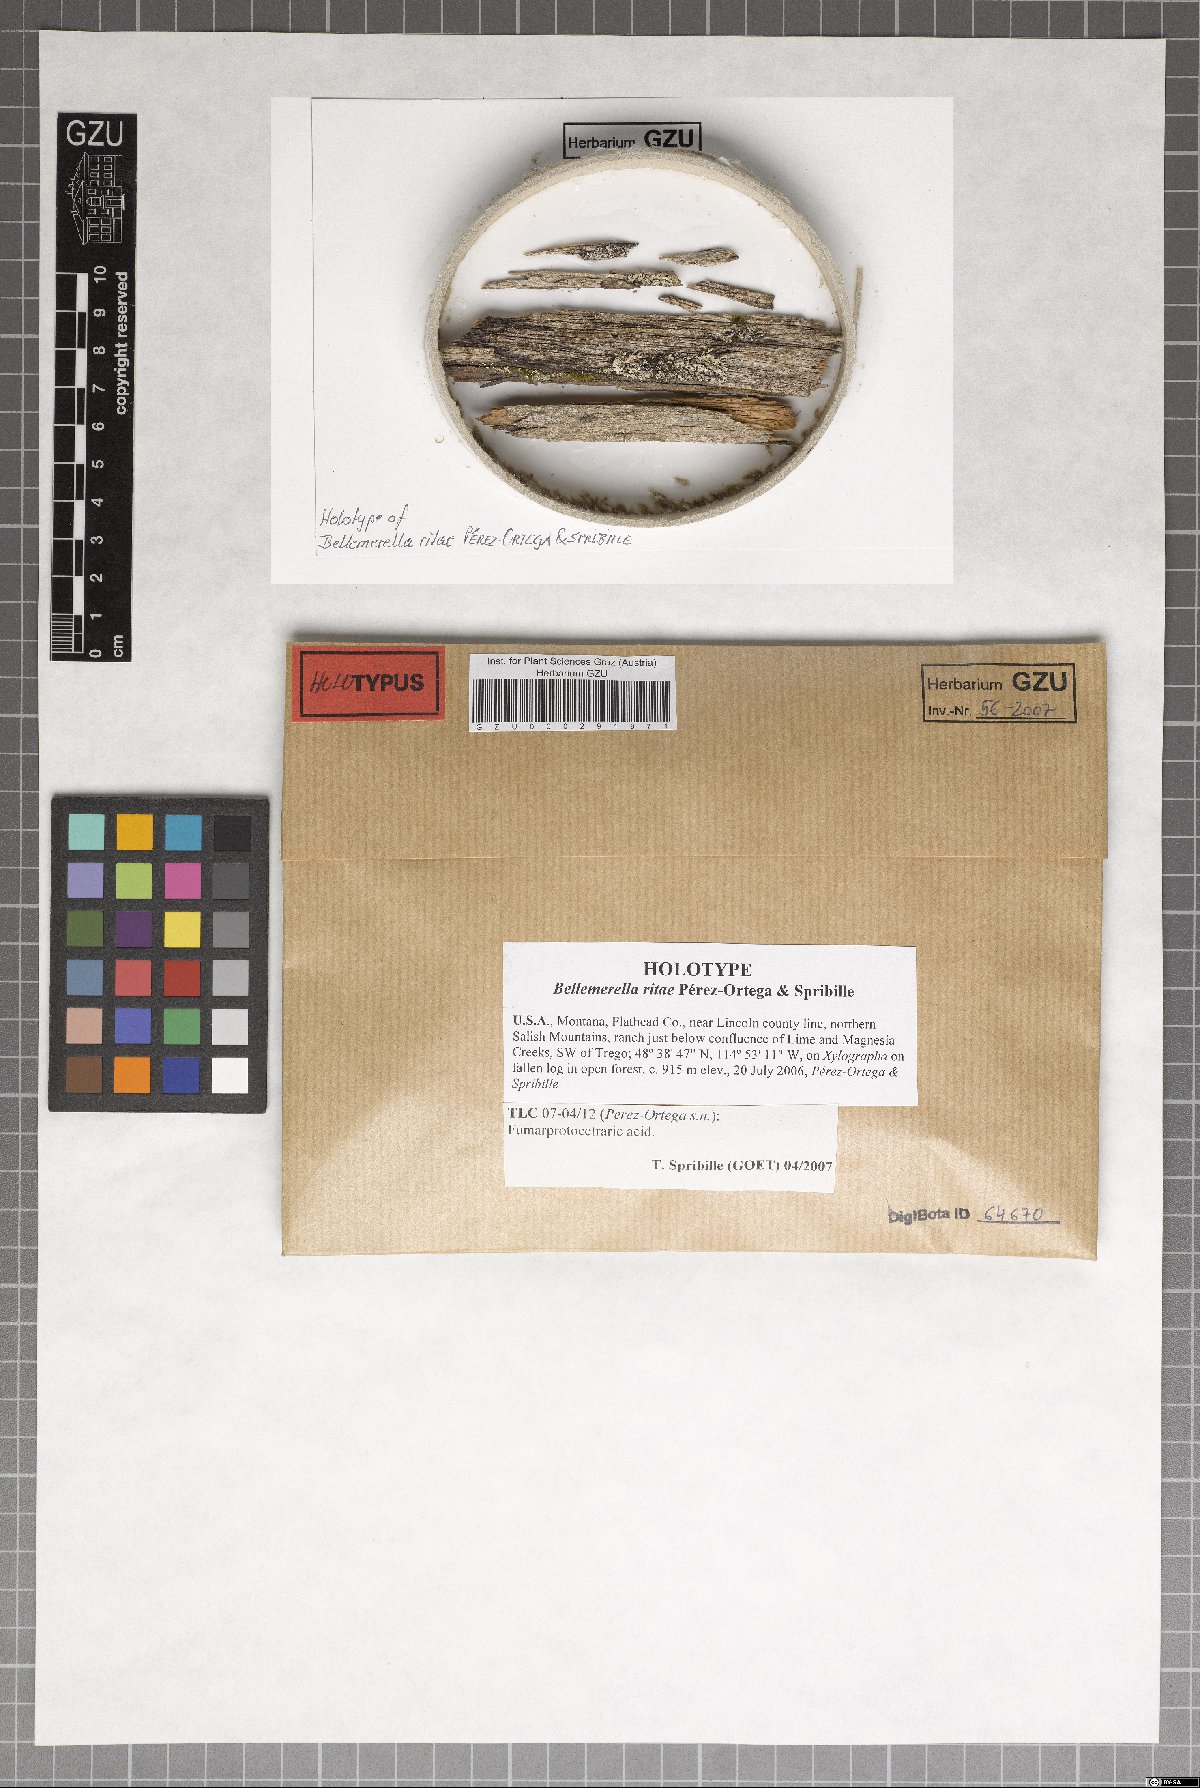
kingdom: Fungi
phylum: Ascomycota
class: Eurotiomycetes
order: Verrucariales
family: Verrucariaceae
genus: Bellemerella
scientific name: Bellemerella ritae
